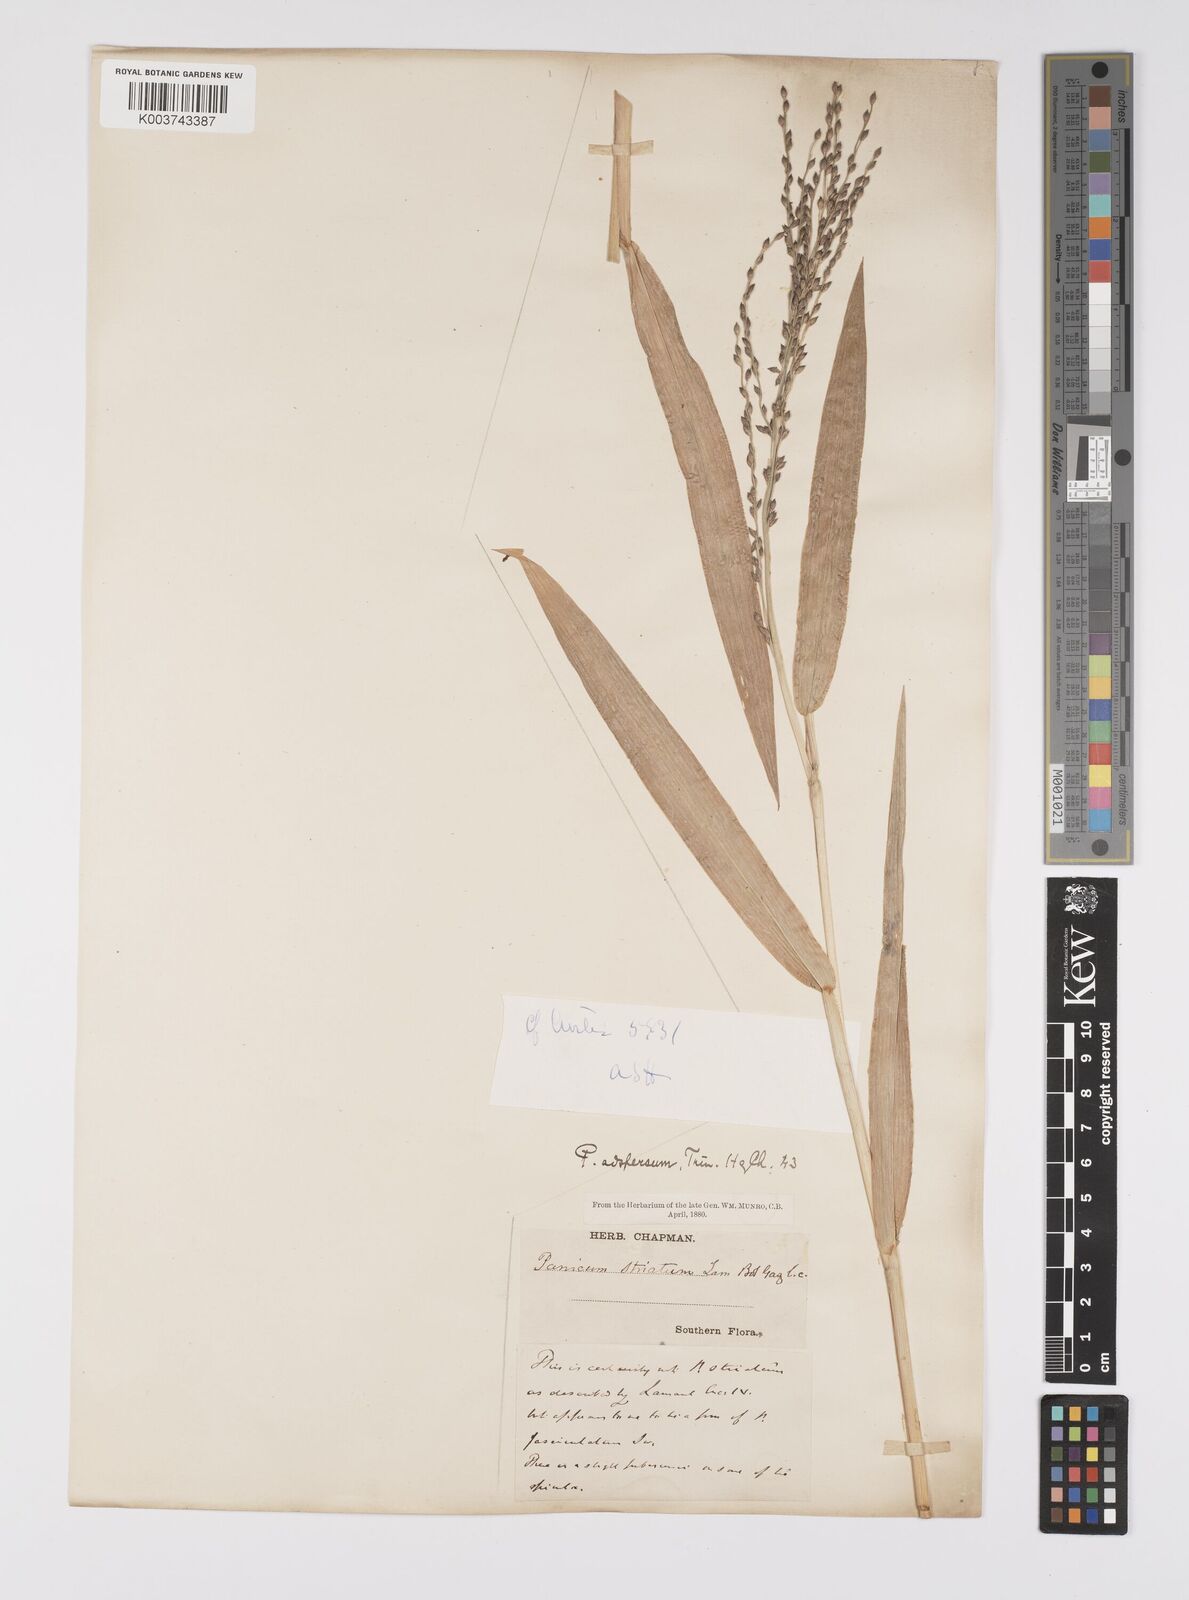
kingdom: Plantae
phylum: Tracheophyta
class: Liliopsida
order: Poales
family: Poaceae
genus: Urochloa
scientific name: Urochloa adspersa
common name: Dominican signal grass
